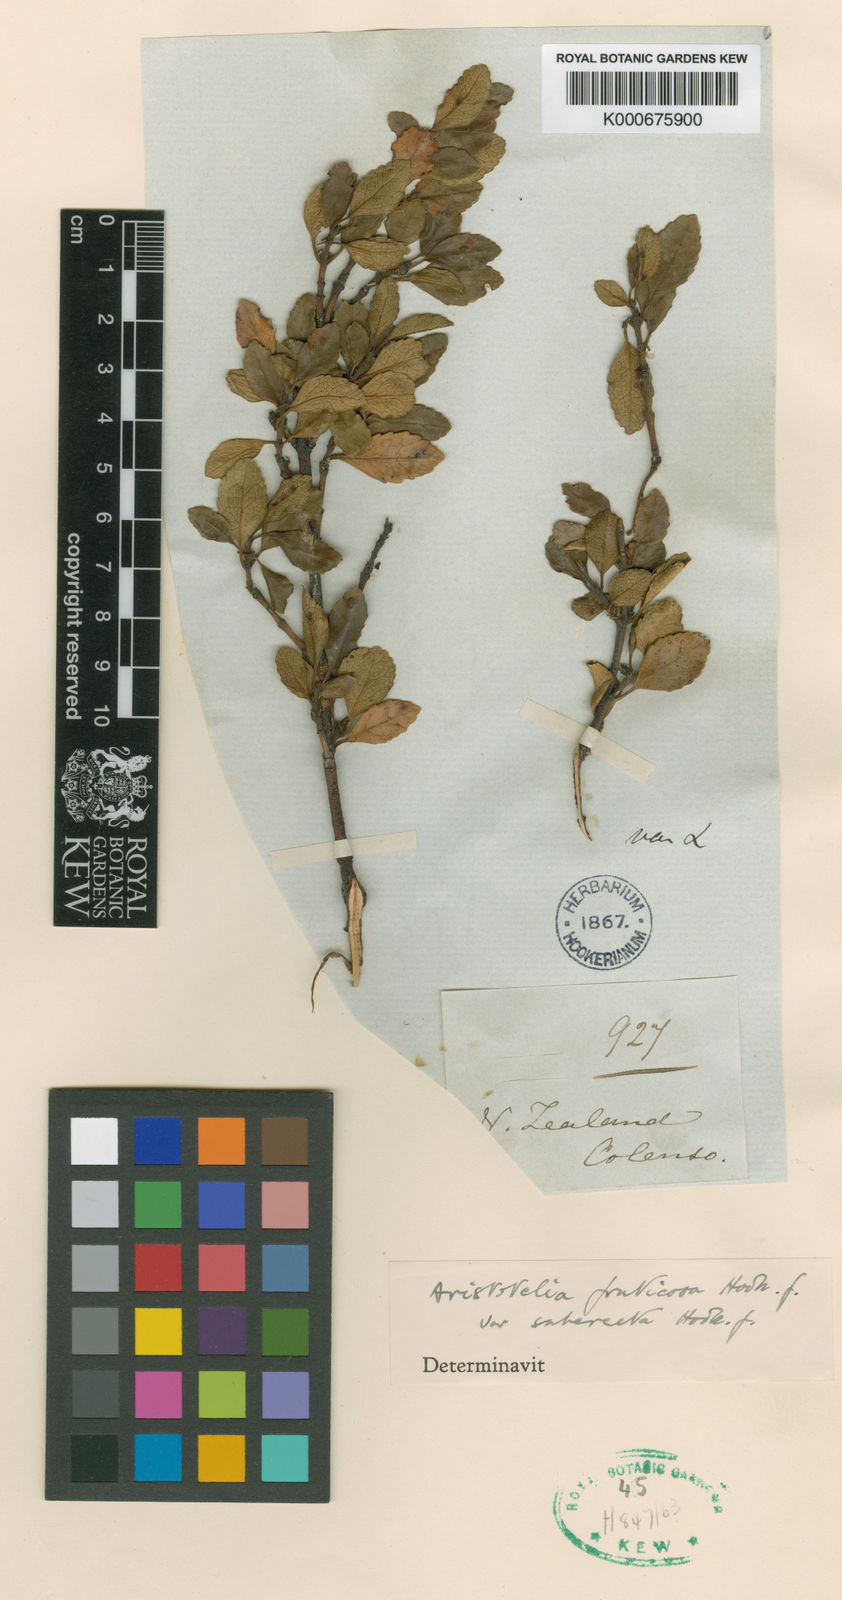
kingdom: Plantae
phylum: Tracheophyta
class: Magnoliopsida
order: Oxalidales
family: Elaeocarpaceae
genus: Aristotelia
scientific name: Aristotelia fruticosa
